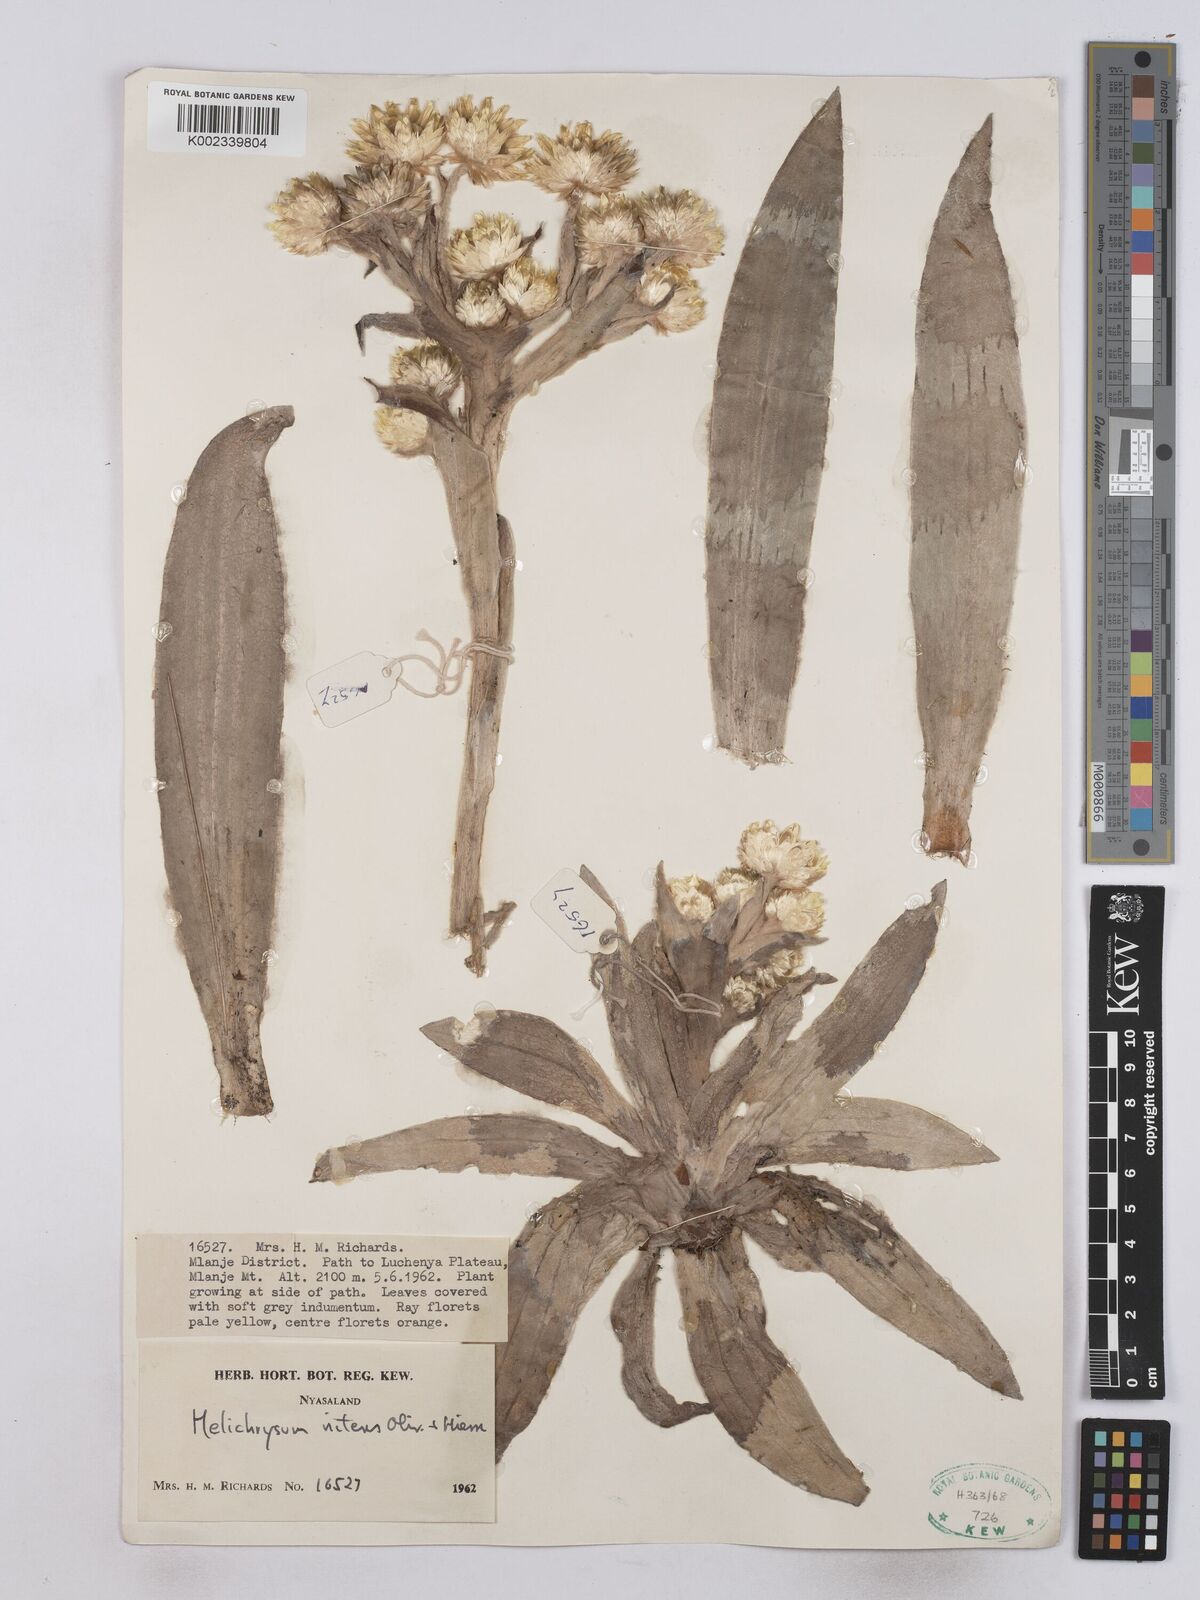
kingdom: Plantae
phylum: Tracheophyta
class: Magnoliopsida
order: Asterales
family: Asteraceae
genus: Helichrysum
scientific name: Helichrysum nitens
